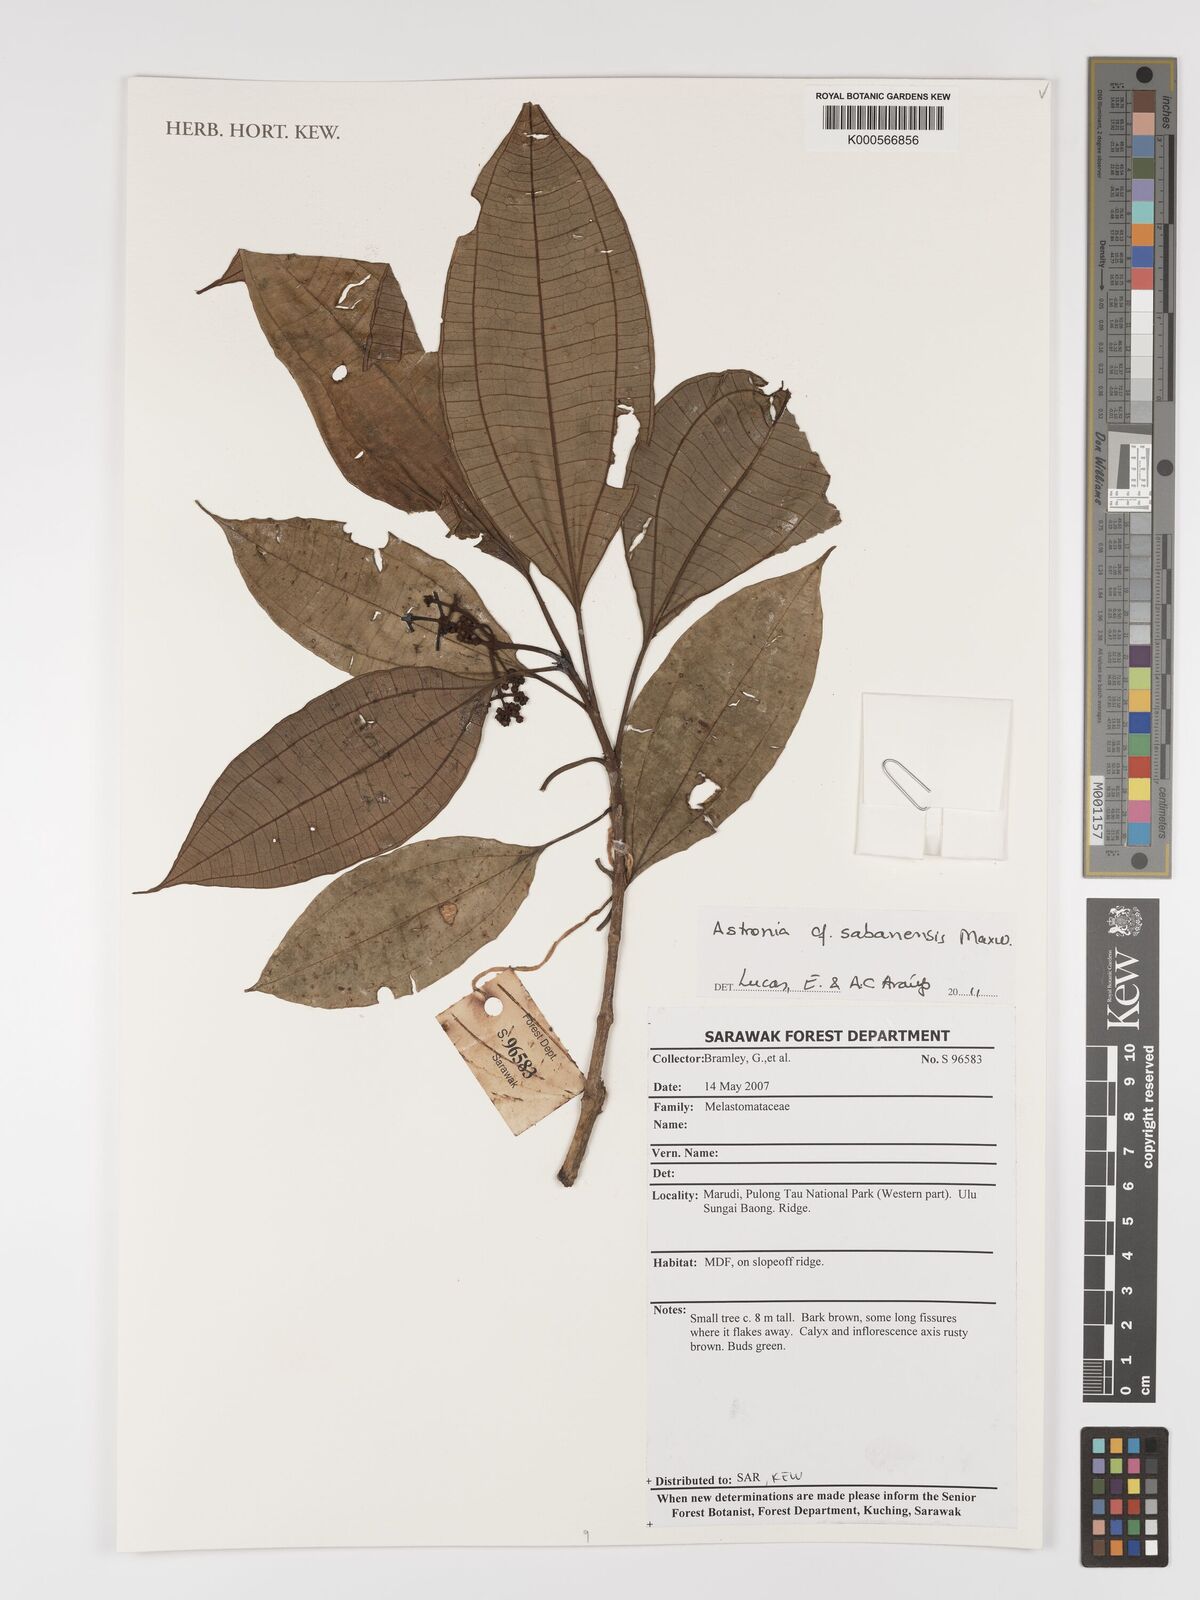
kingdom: Plantae
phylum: Tracheophyta
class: Magnoliopsida
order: Myrtales
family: Melastomataceae
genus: Memecylon
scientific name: Memecylon
